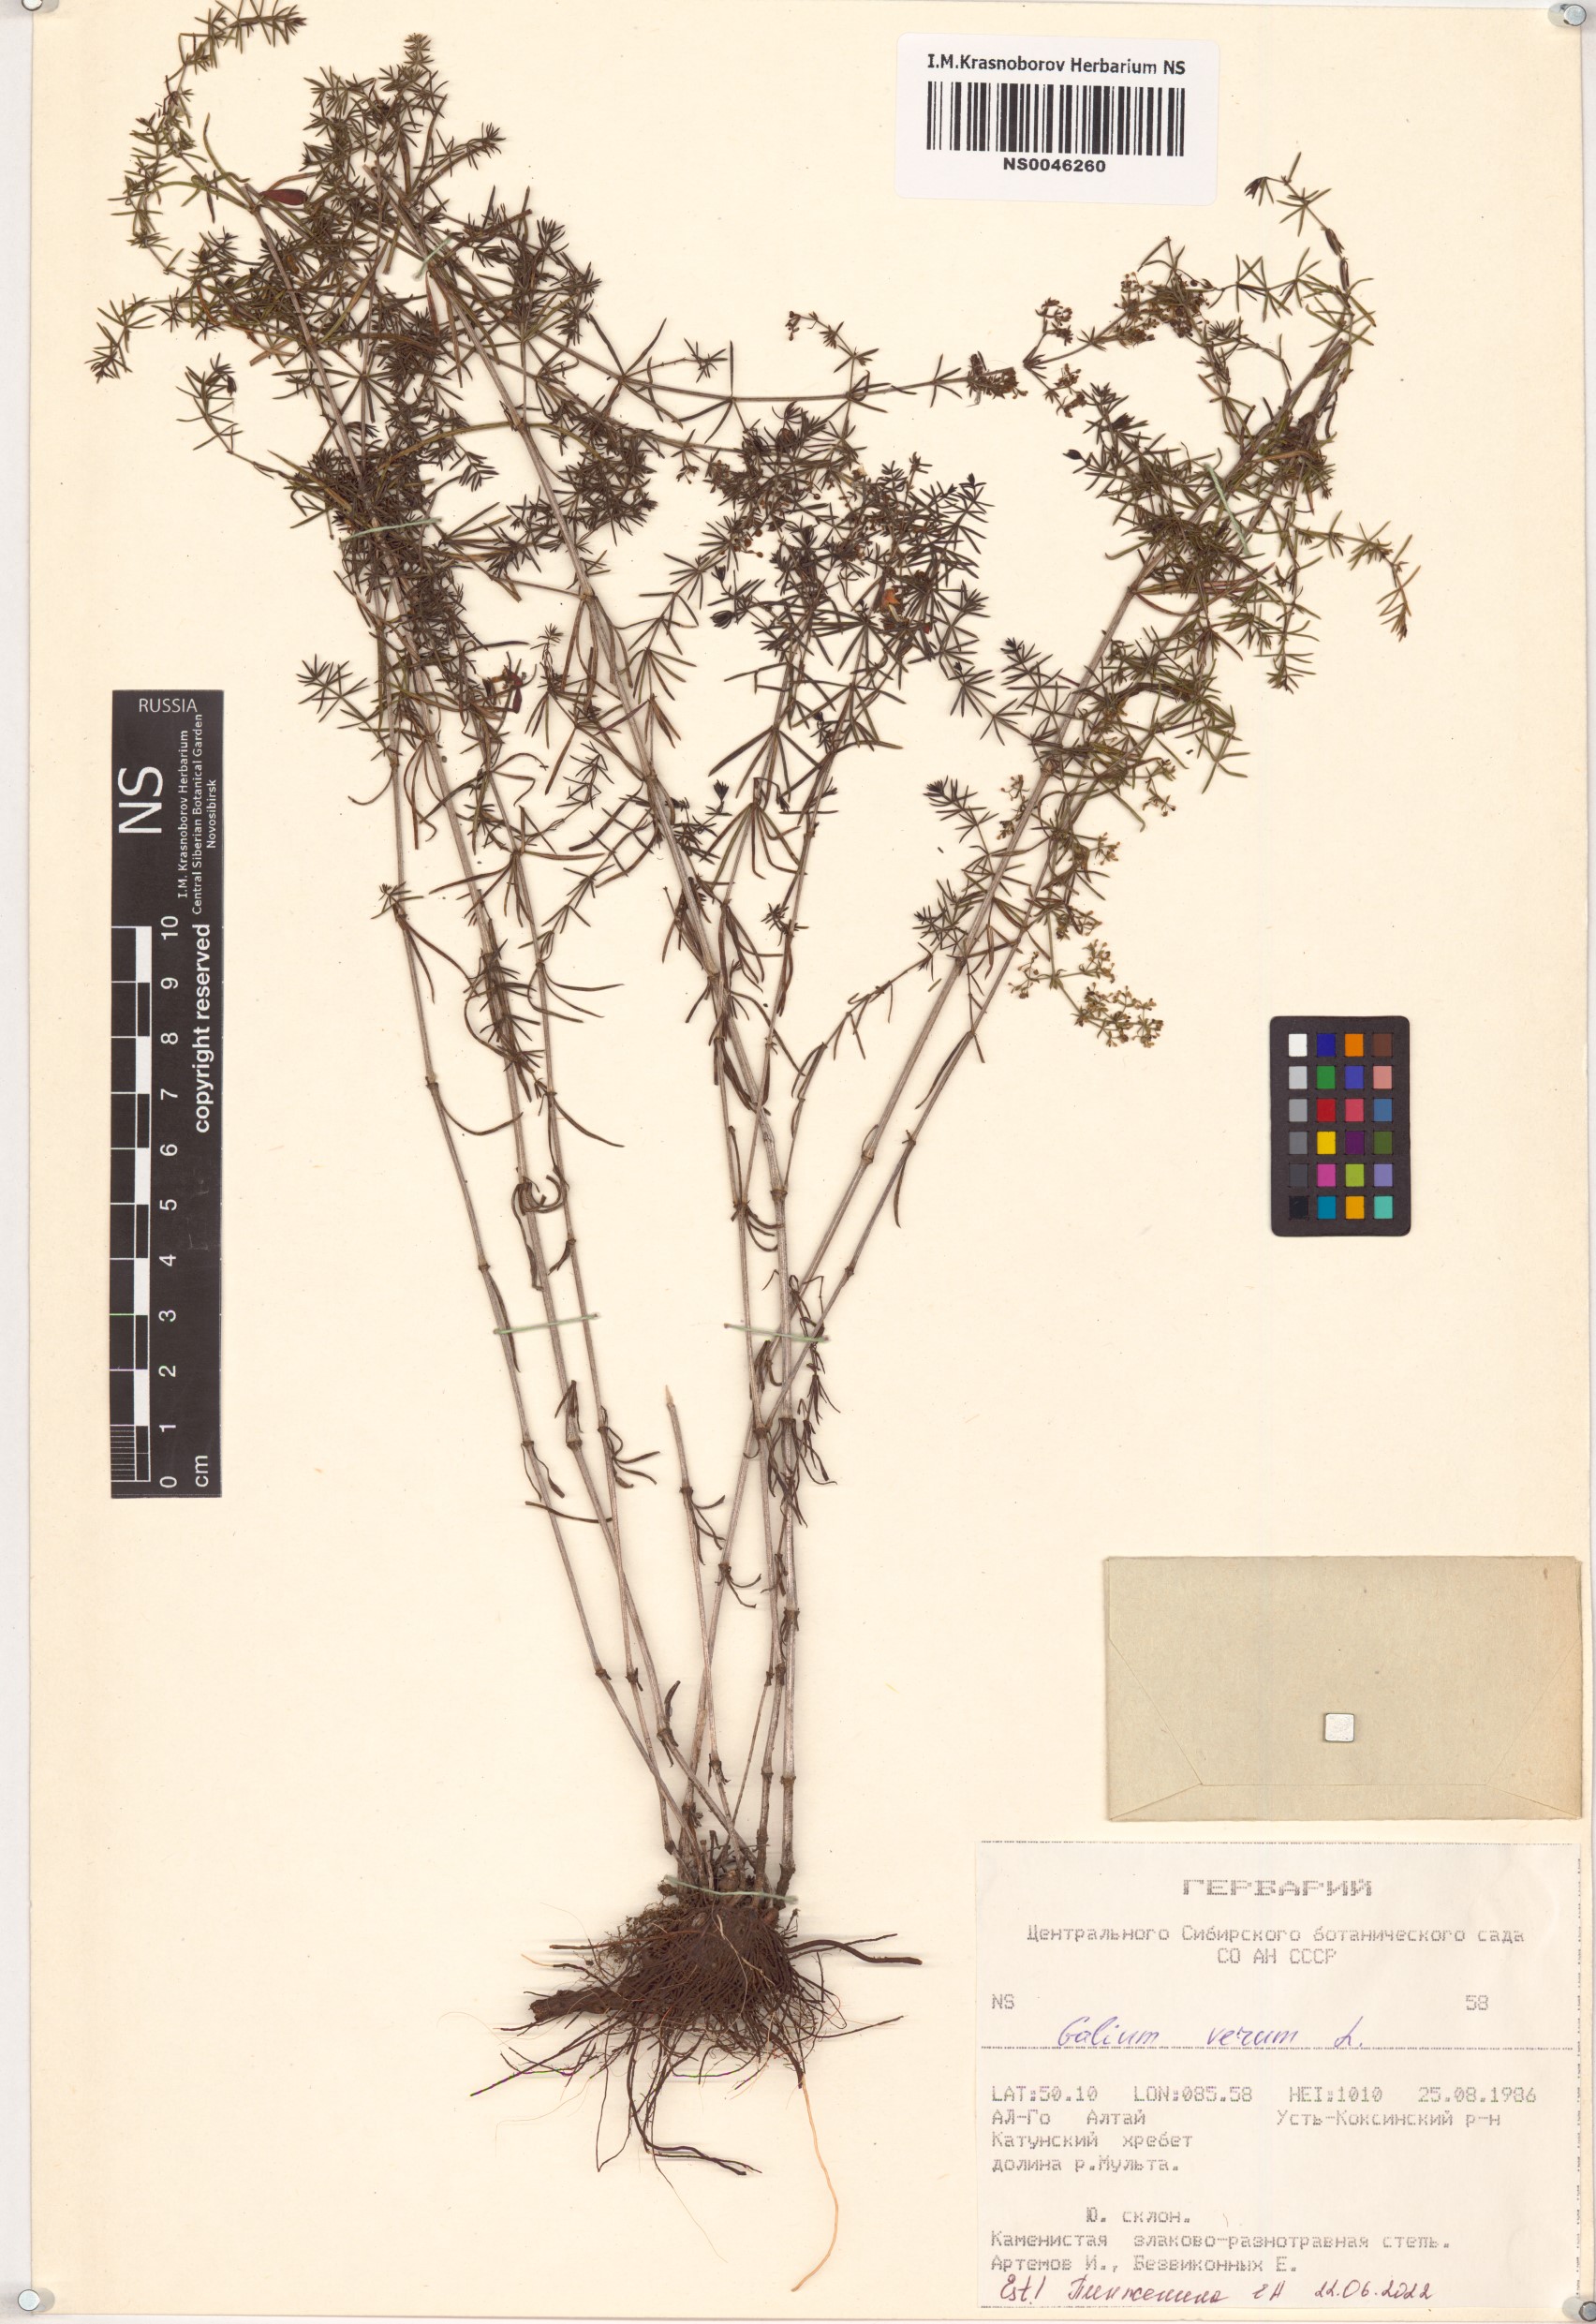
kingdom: Plantae
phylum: Tracheophyta
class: Magnoliopsida
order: Gentianales
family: Rubiaceae
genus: Galium
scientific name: Galium verum
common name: Lady's bedstraw
